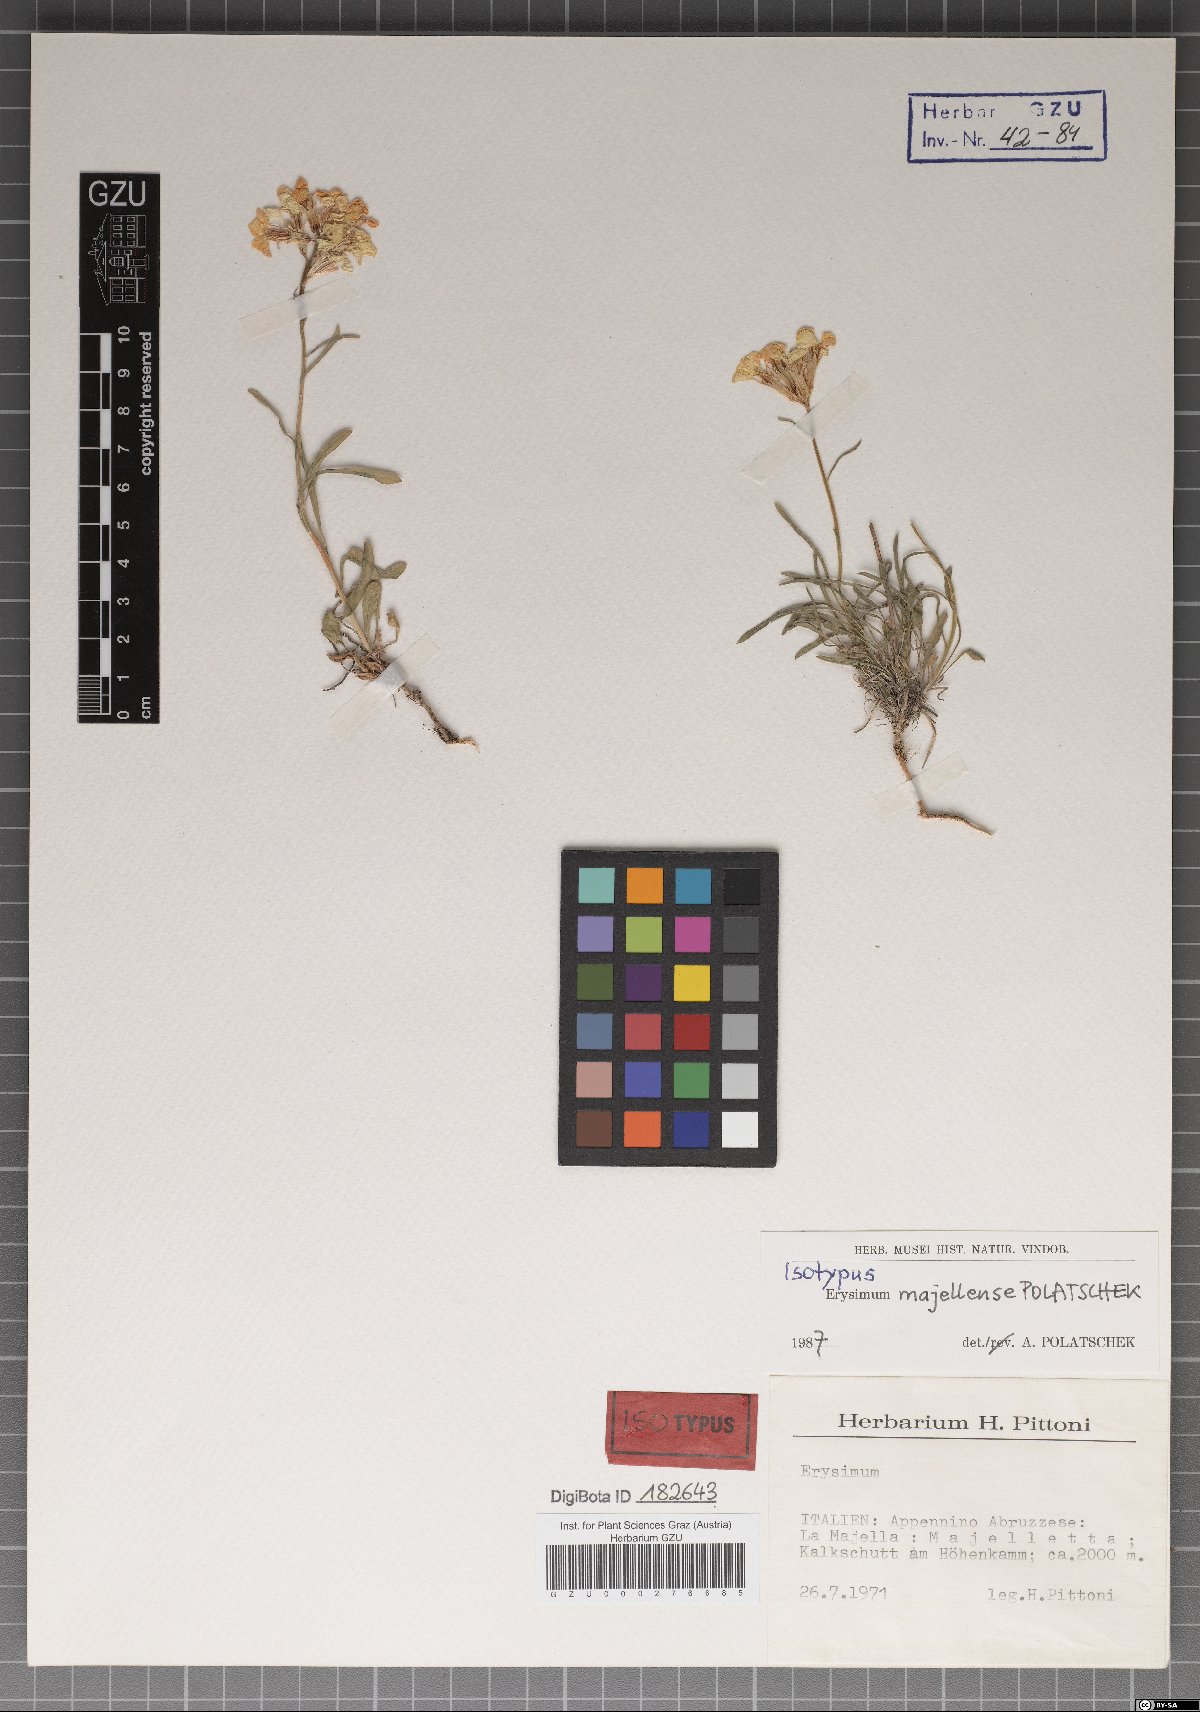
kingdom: Plantae
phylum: Tracheophyta
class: Magnoliopsida
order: Brassicales
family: Brassicaceae
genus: Erysimum
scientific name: Erysimum majellense
